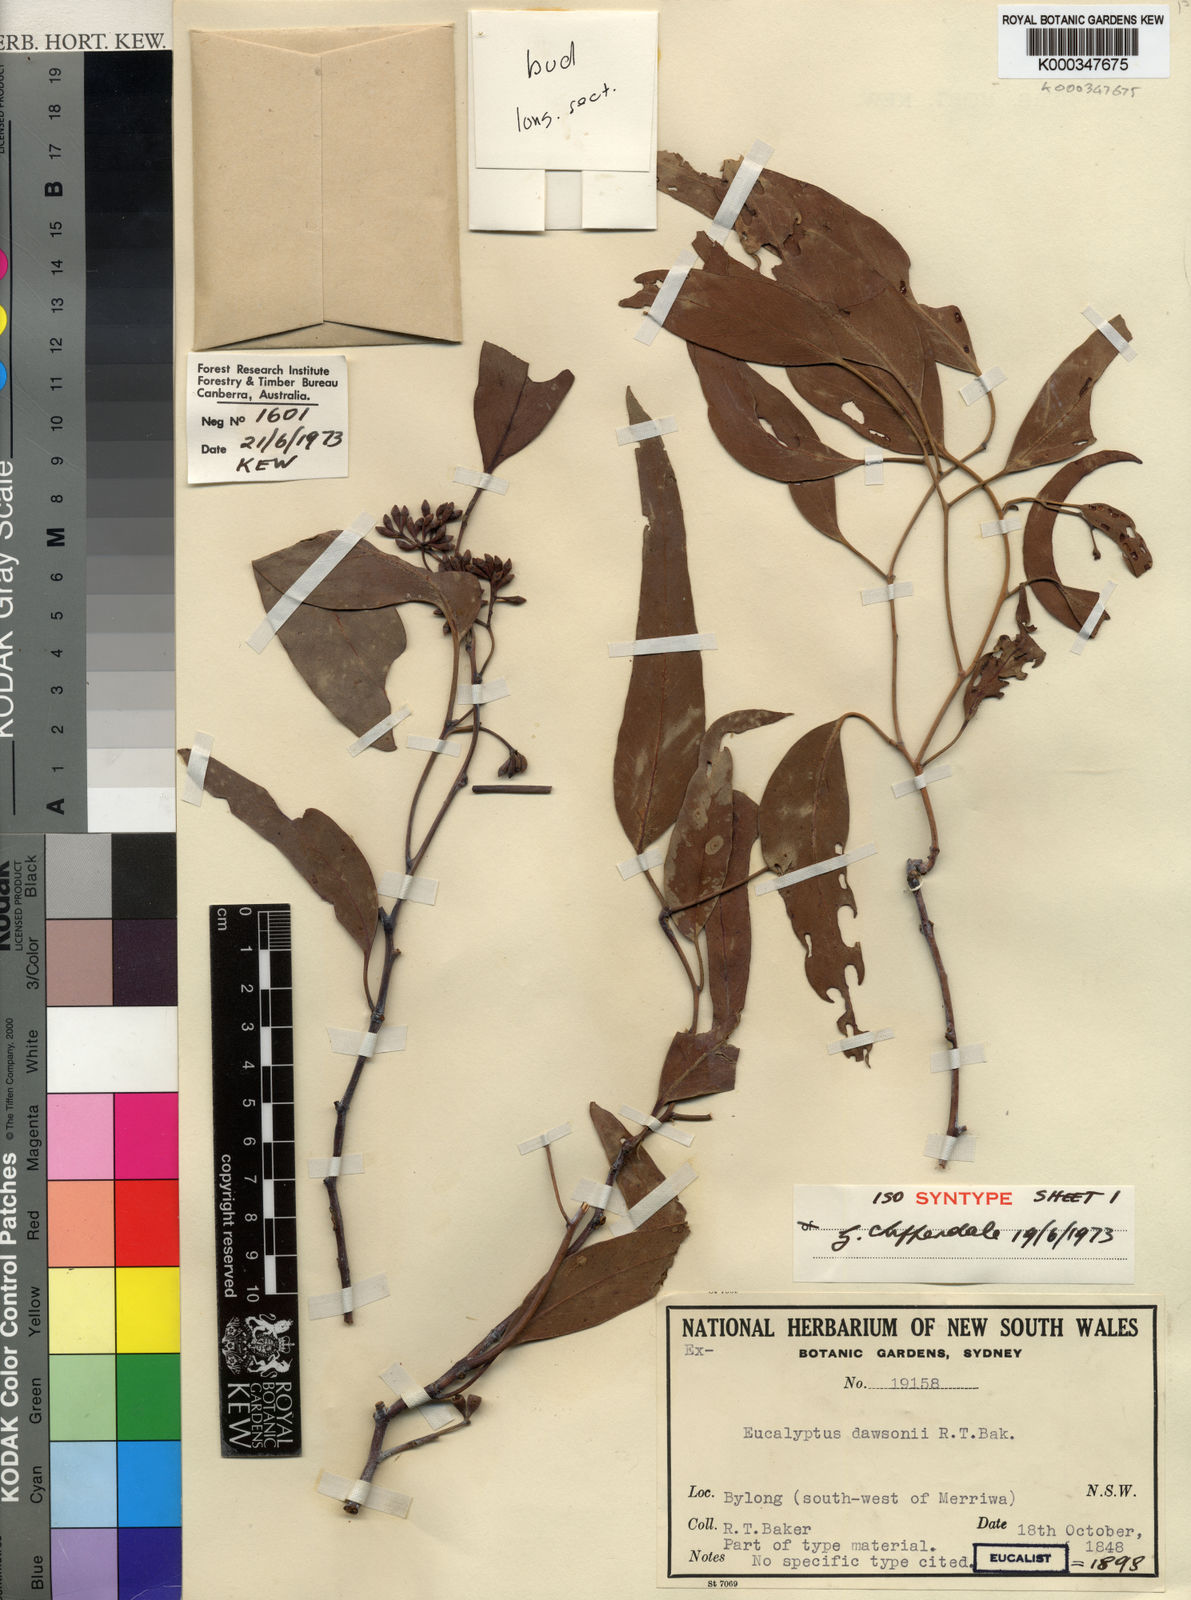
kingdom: Plantae
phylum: Tracheophyta
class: Magnoliopsida
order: Myrtales
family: Myrtaceae
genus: Eucalyptus
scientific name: Eucalyptus dawsonii
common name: Slaty-box
